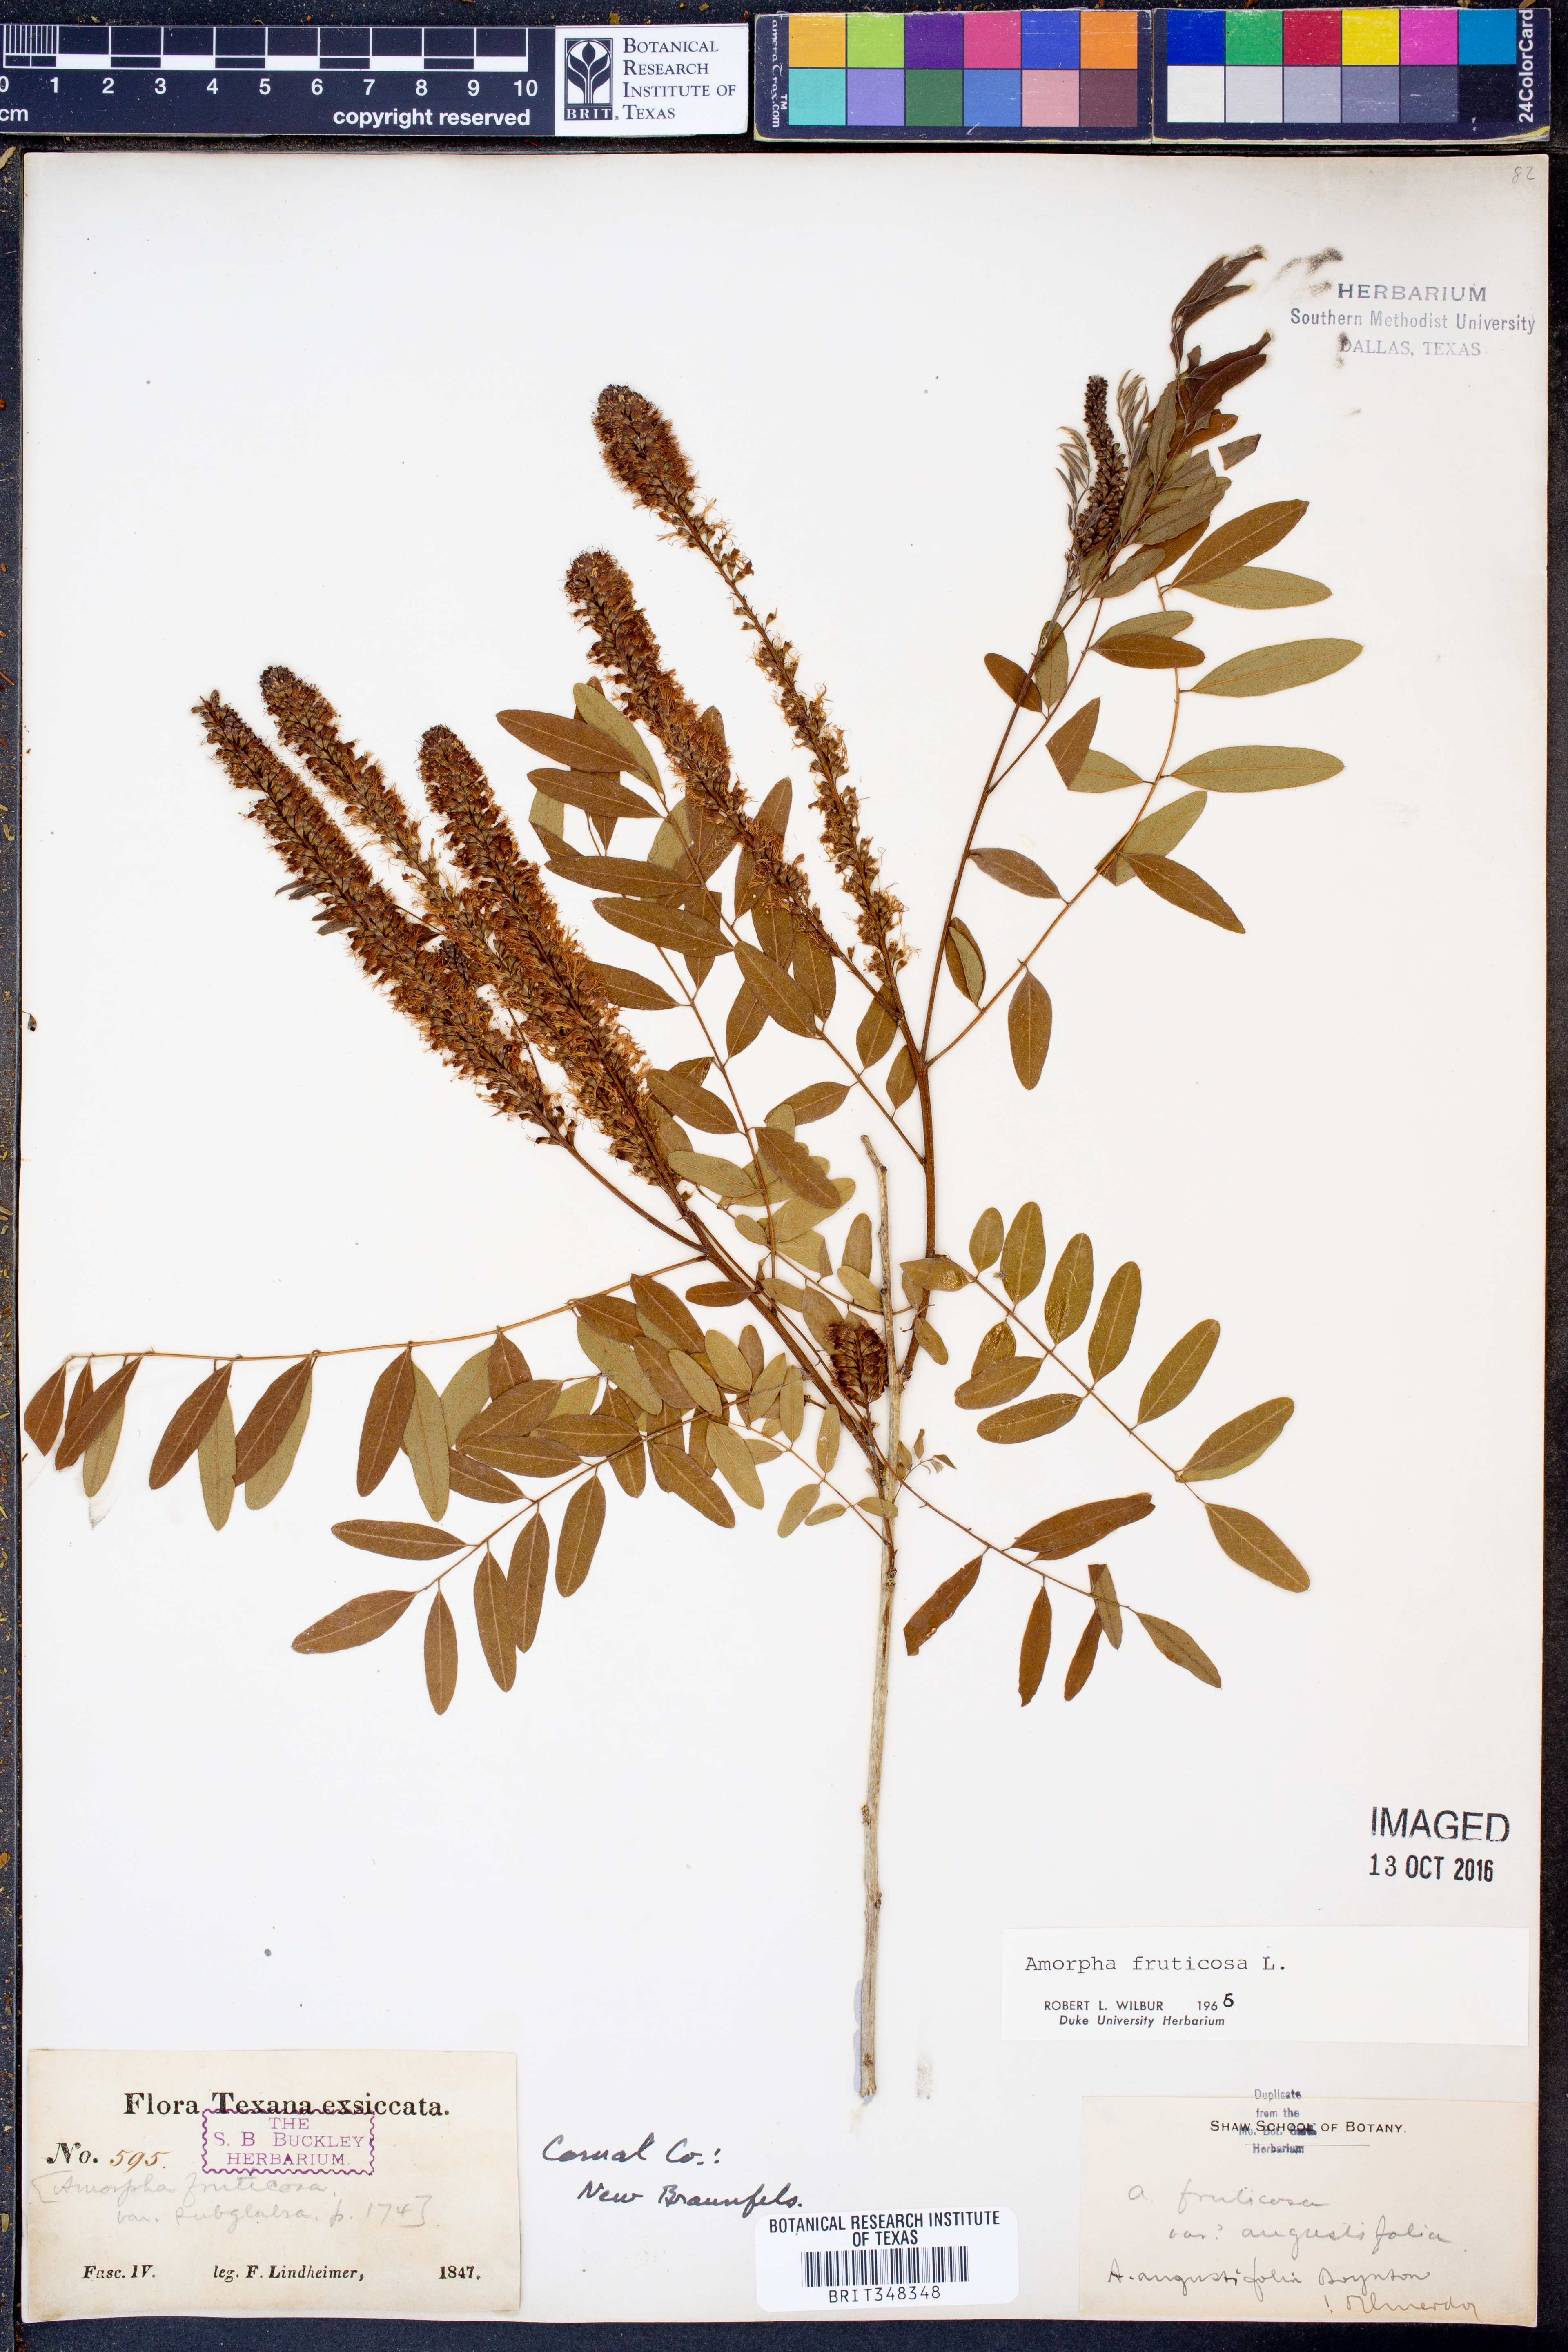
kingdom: Plantae
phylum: Tracheophyta
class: Magnoliopsida
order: Fabales
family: Fabaceae
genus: Amorpha
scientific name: Amorpha fruticosa
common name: False indigo
